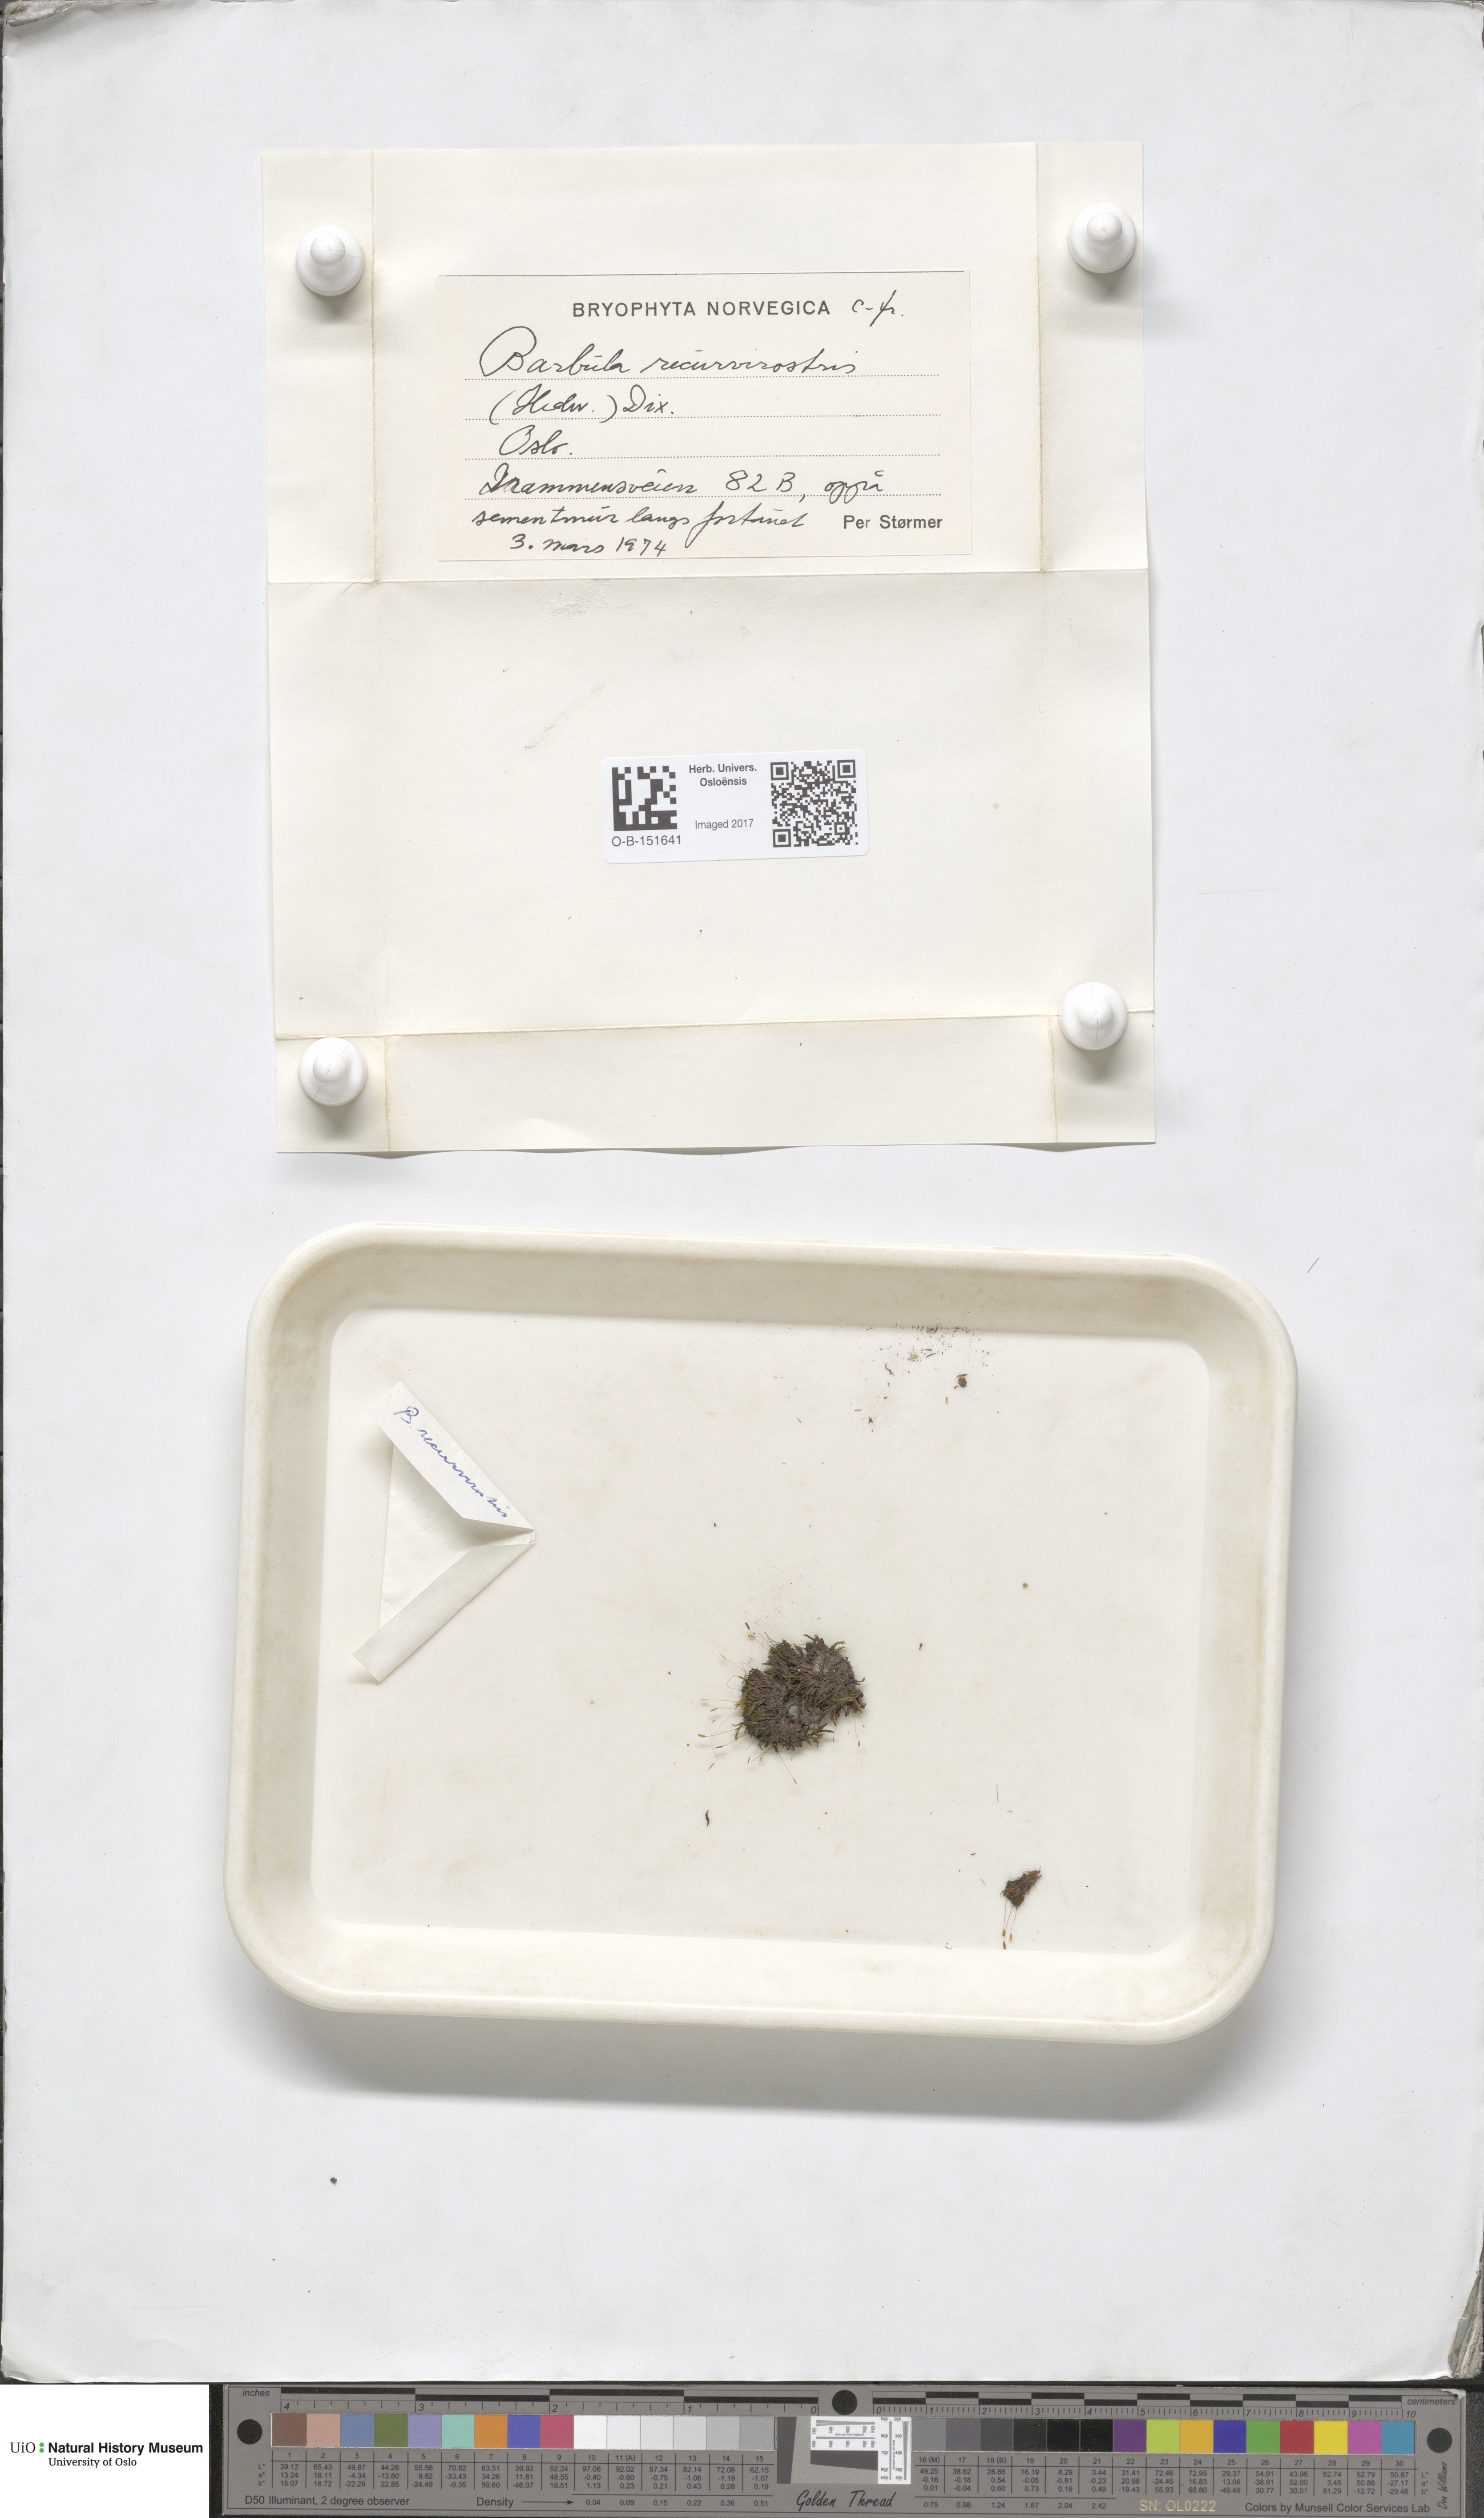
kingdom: Plantae
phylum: Bryophyta
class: Bryopsida
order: Pottiales
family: Pottiaceae
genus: Bryoerythrophyllum
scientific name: Bryoerythrophyllum recurvirostrum
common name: Red beard moss
